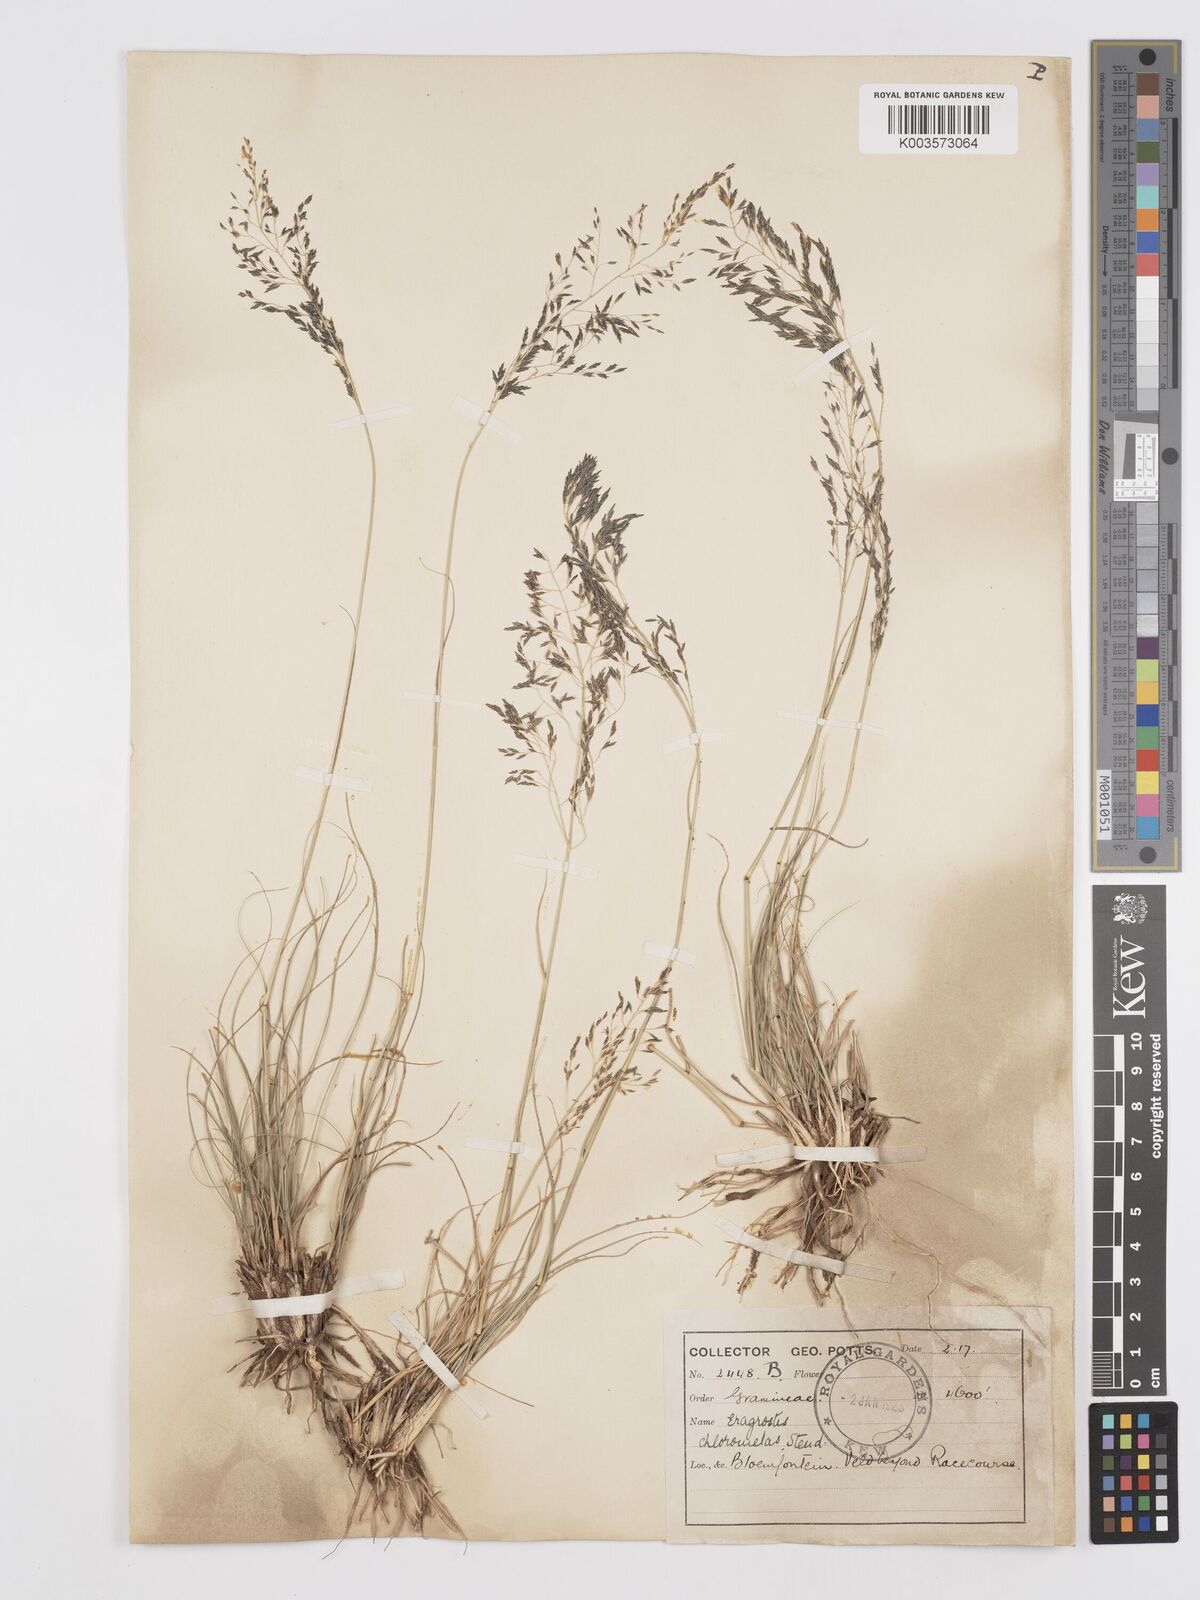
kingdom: Plantae
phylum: Tracheophyta
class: Liliopsida
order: Poales
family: Poaceae
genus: Eragrostis
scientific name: Eragrostis curvula
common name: African love-grass
